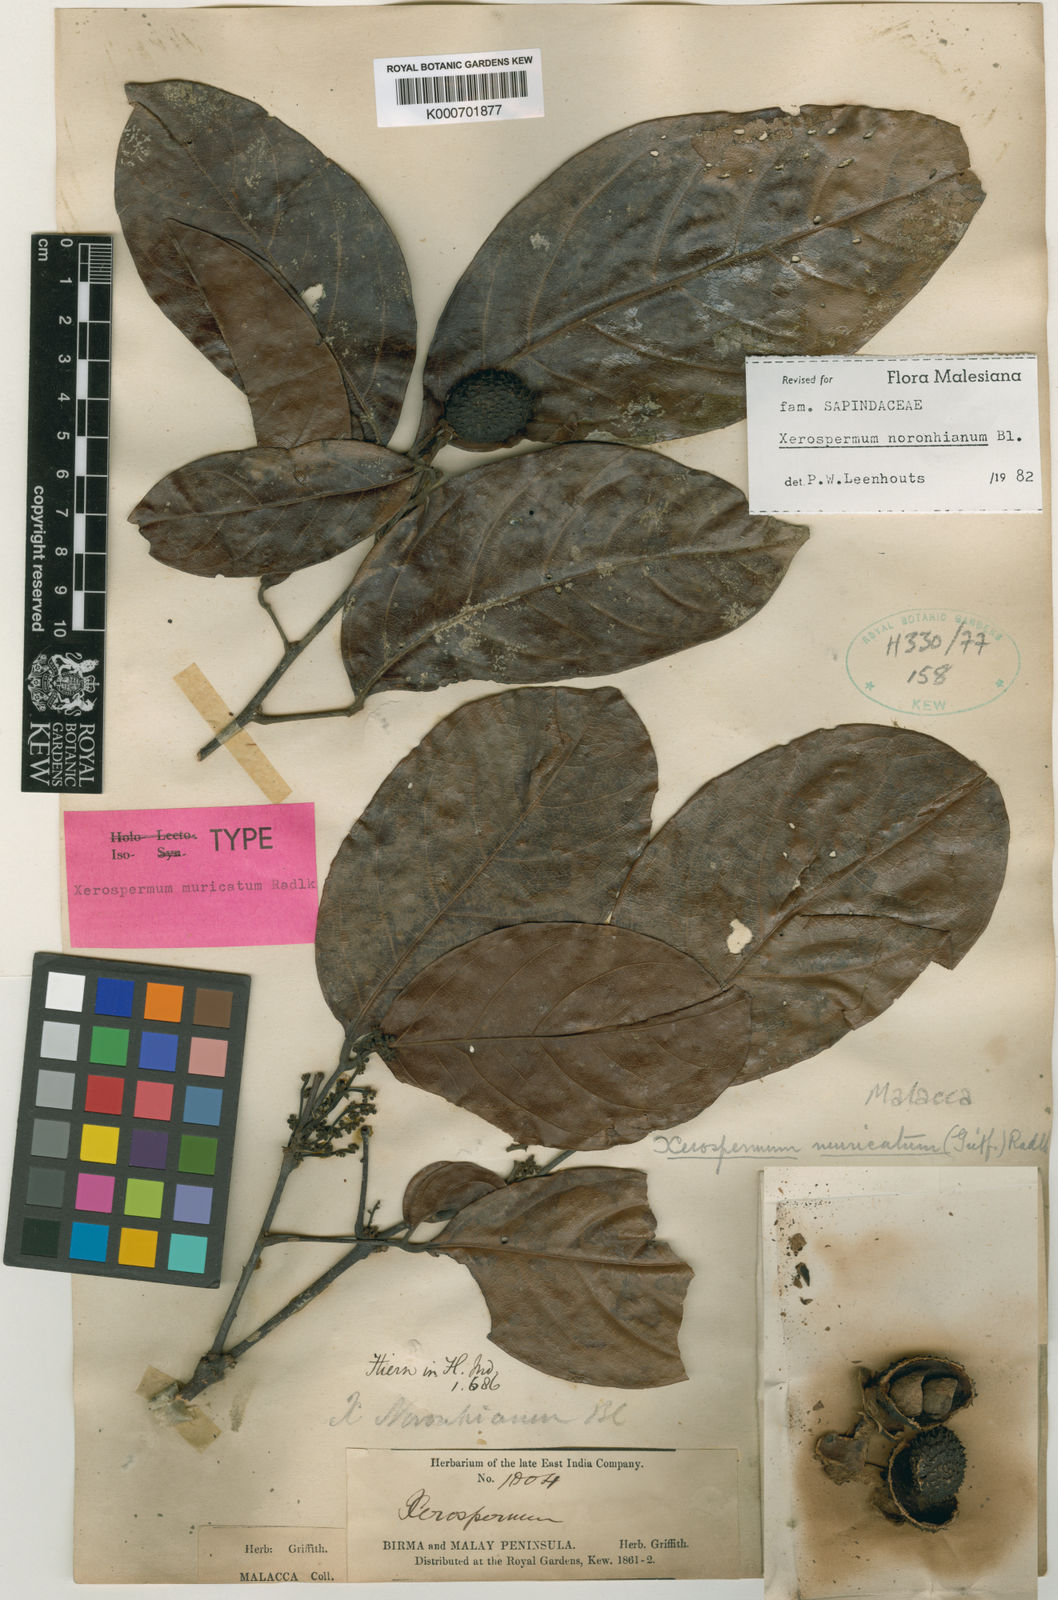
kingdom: Plantae
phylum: Tracheophyta
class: Magnoliopsida
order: Sapindales
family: Sapindaceae
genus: Xerospermum
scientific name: Xerospermum noronhianum
